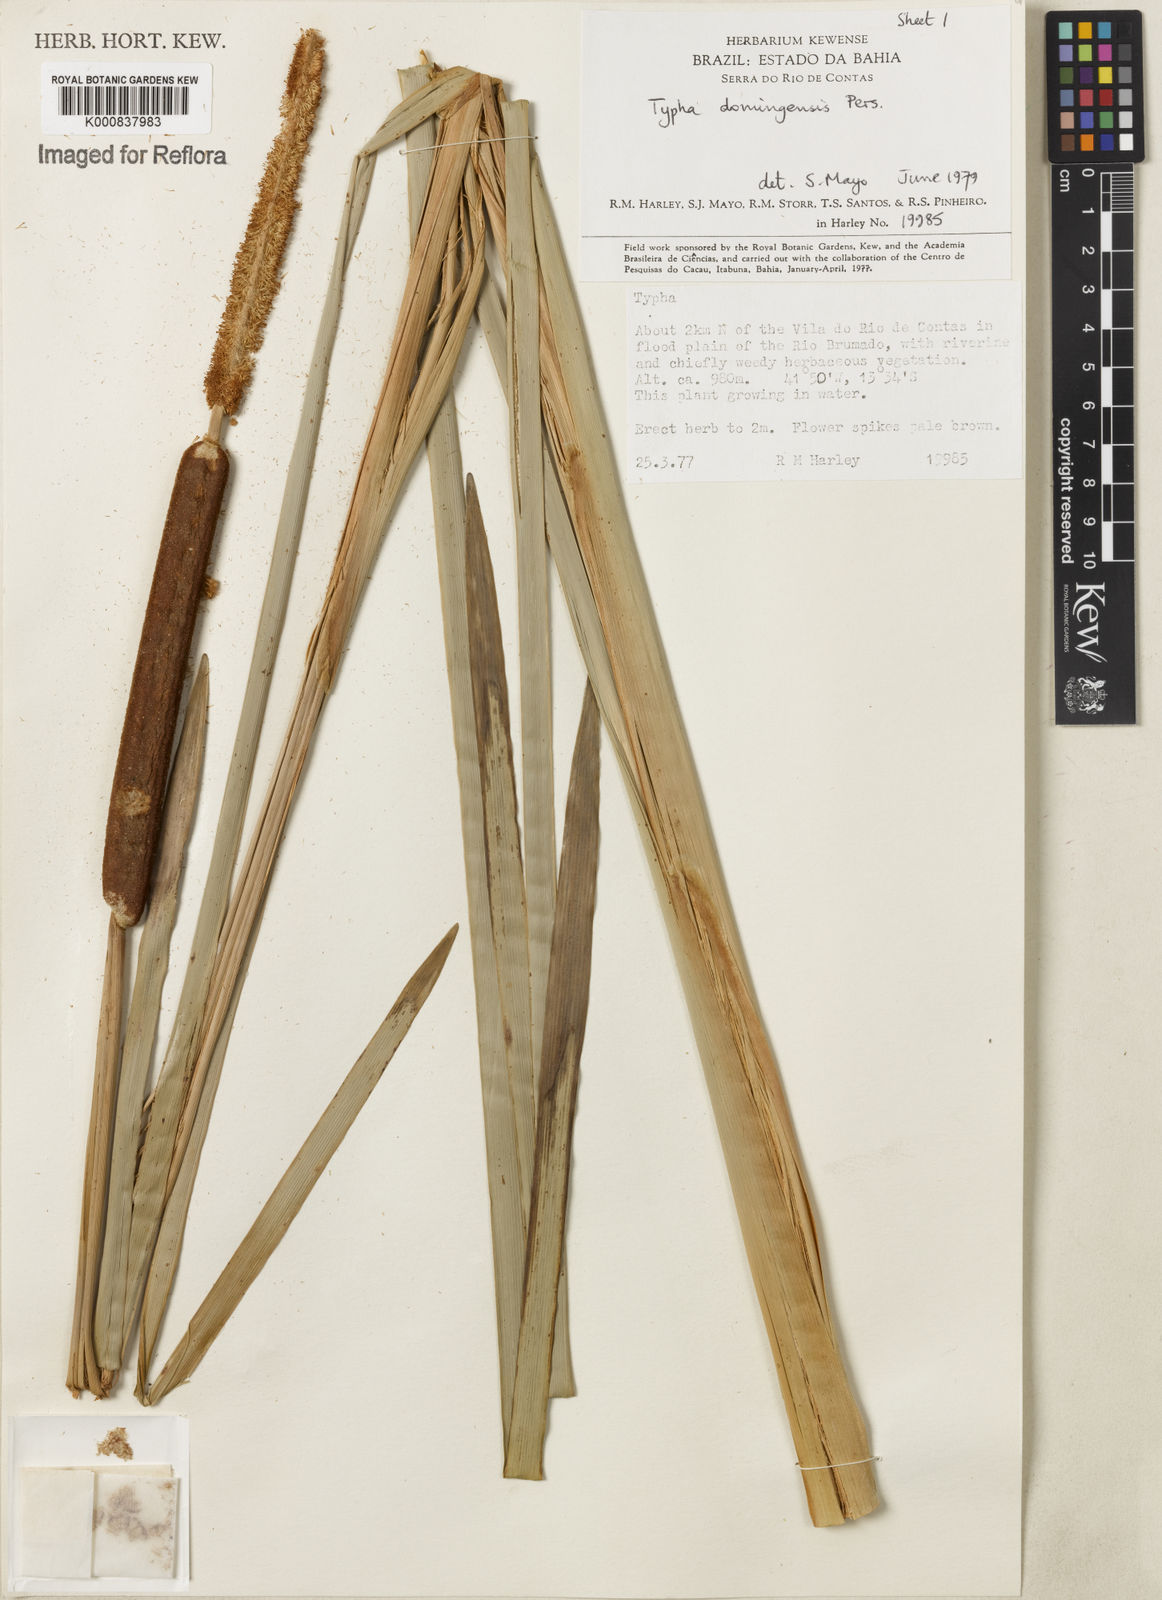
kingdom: Plantae
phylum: Tracheophyta
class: Liliopsida
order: Poales
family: Typhaceae
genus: Typha
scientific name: Typha
